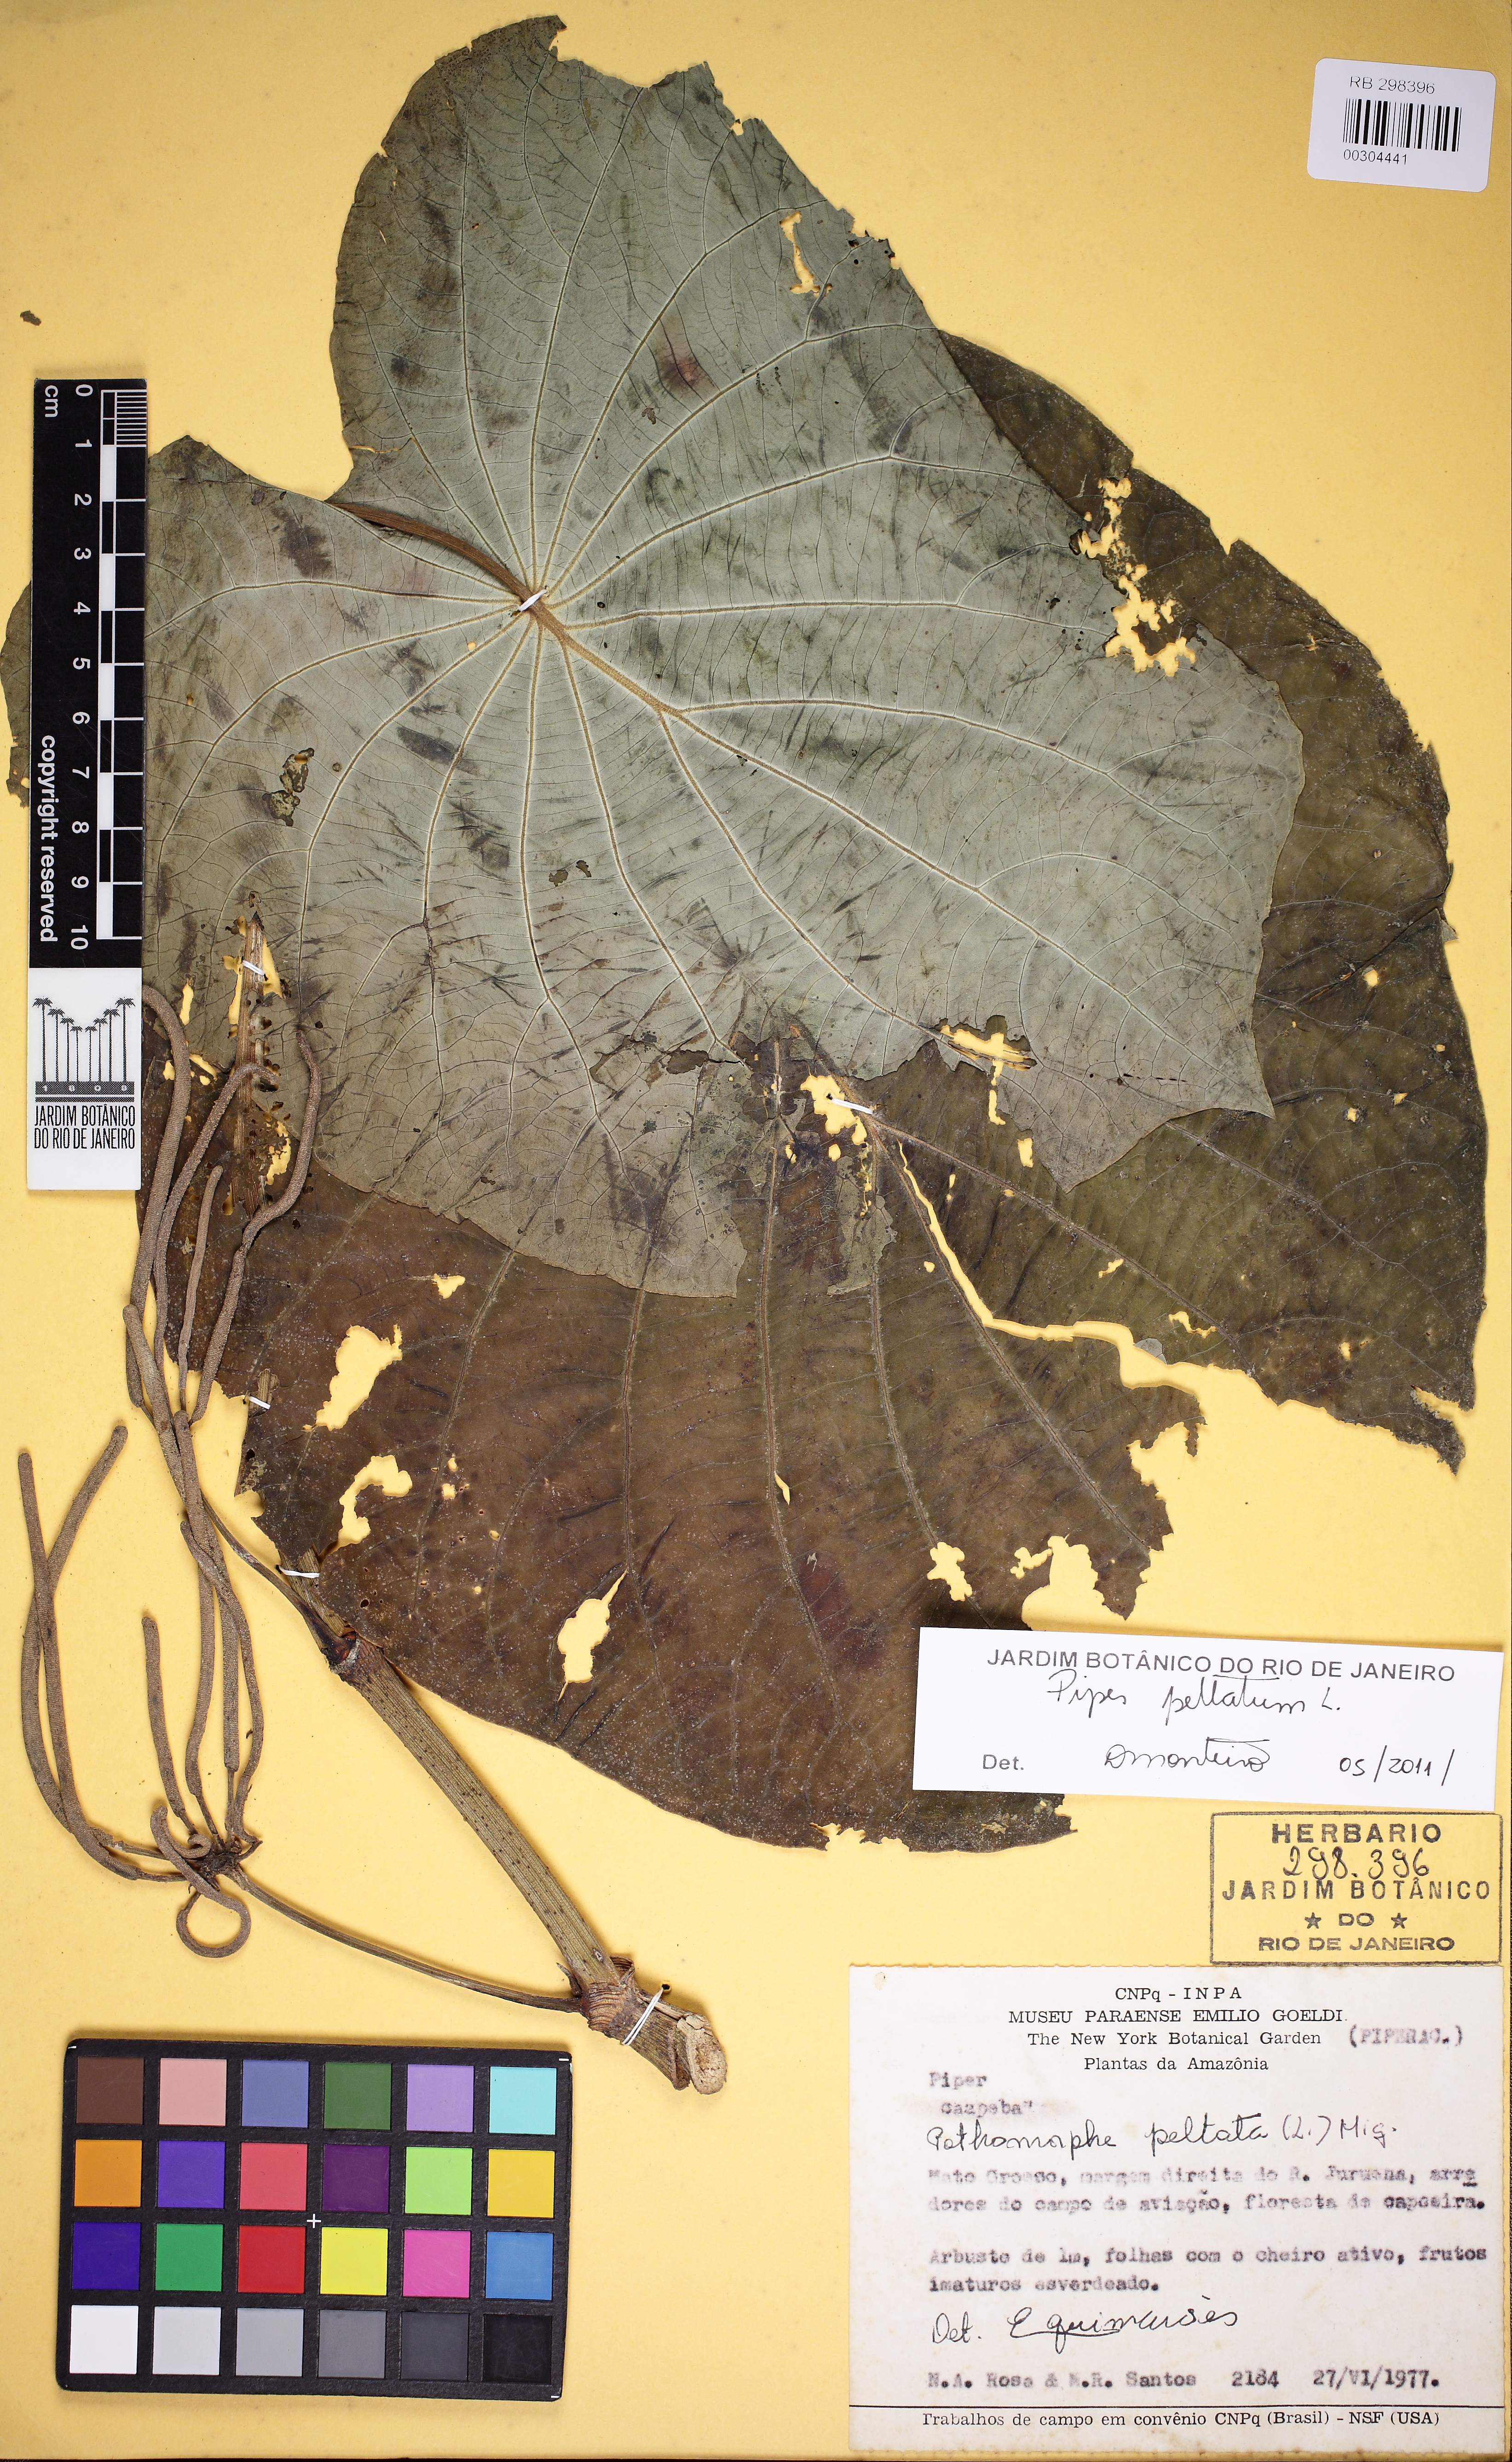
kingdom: Plantae
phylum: Tracheophyta
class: Magnoliopsida
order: Piperales
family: Piperaceae
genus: Piper
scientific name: Piper peltatum
